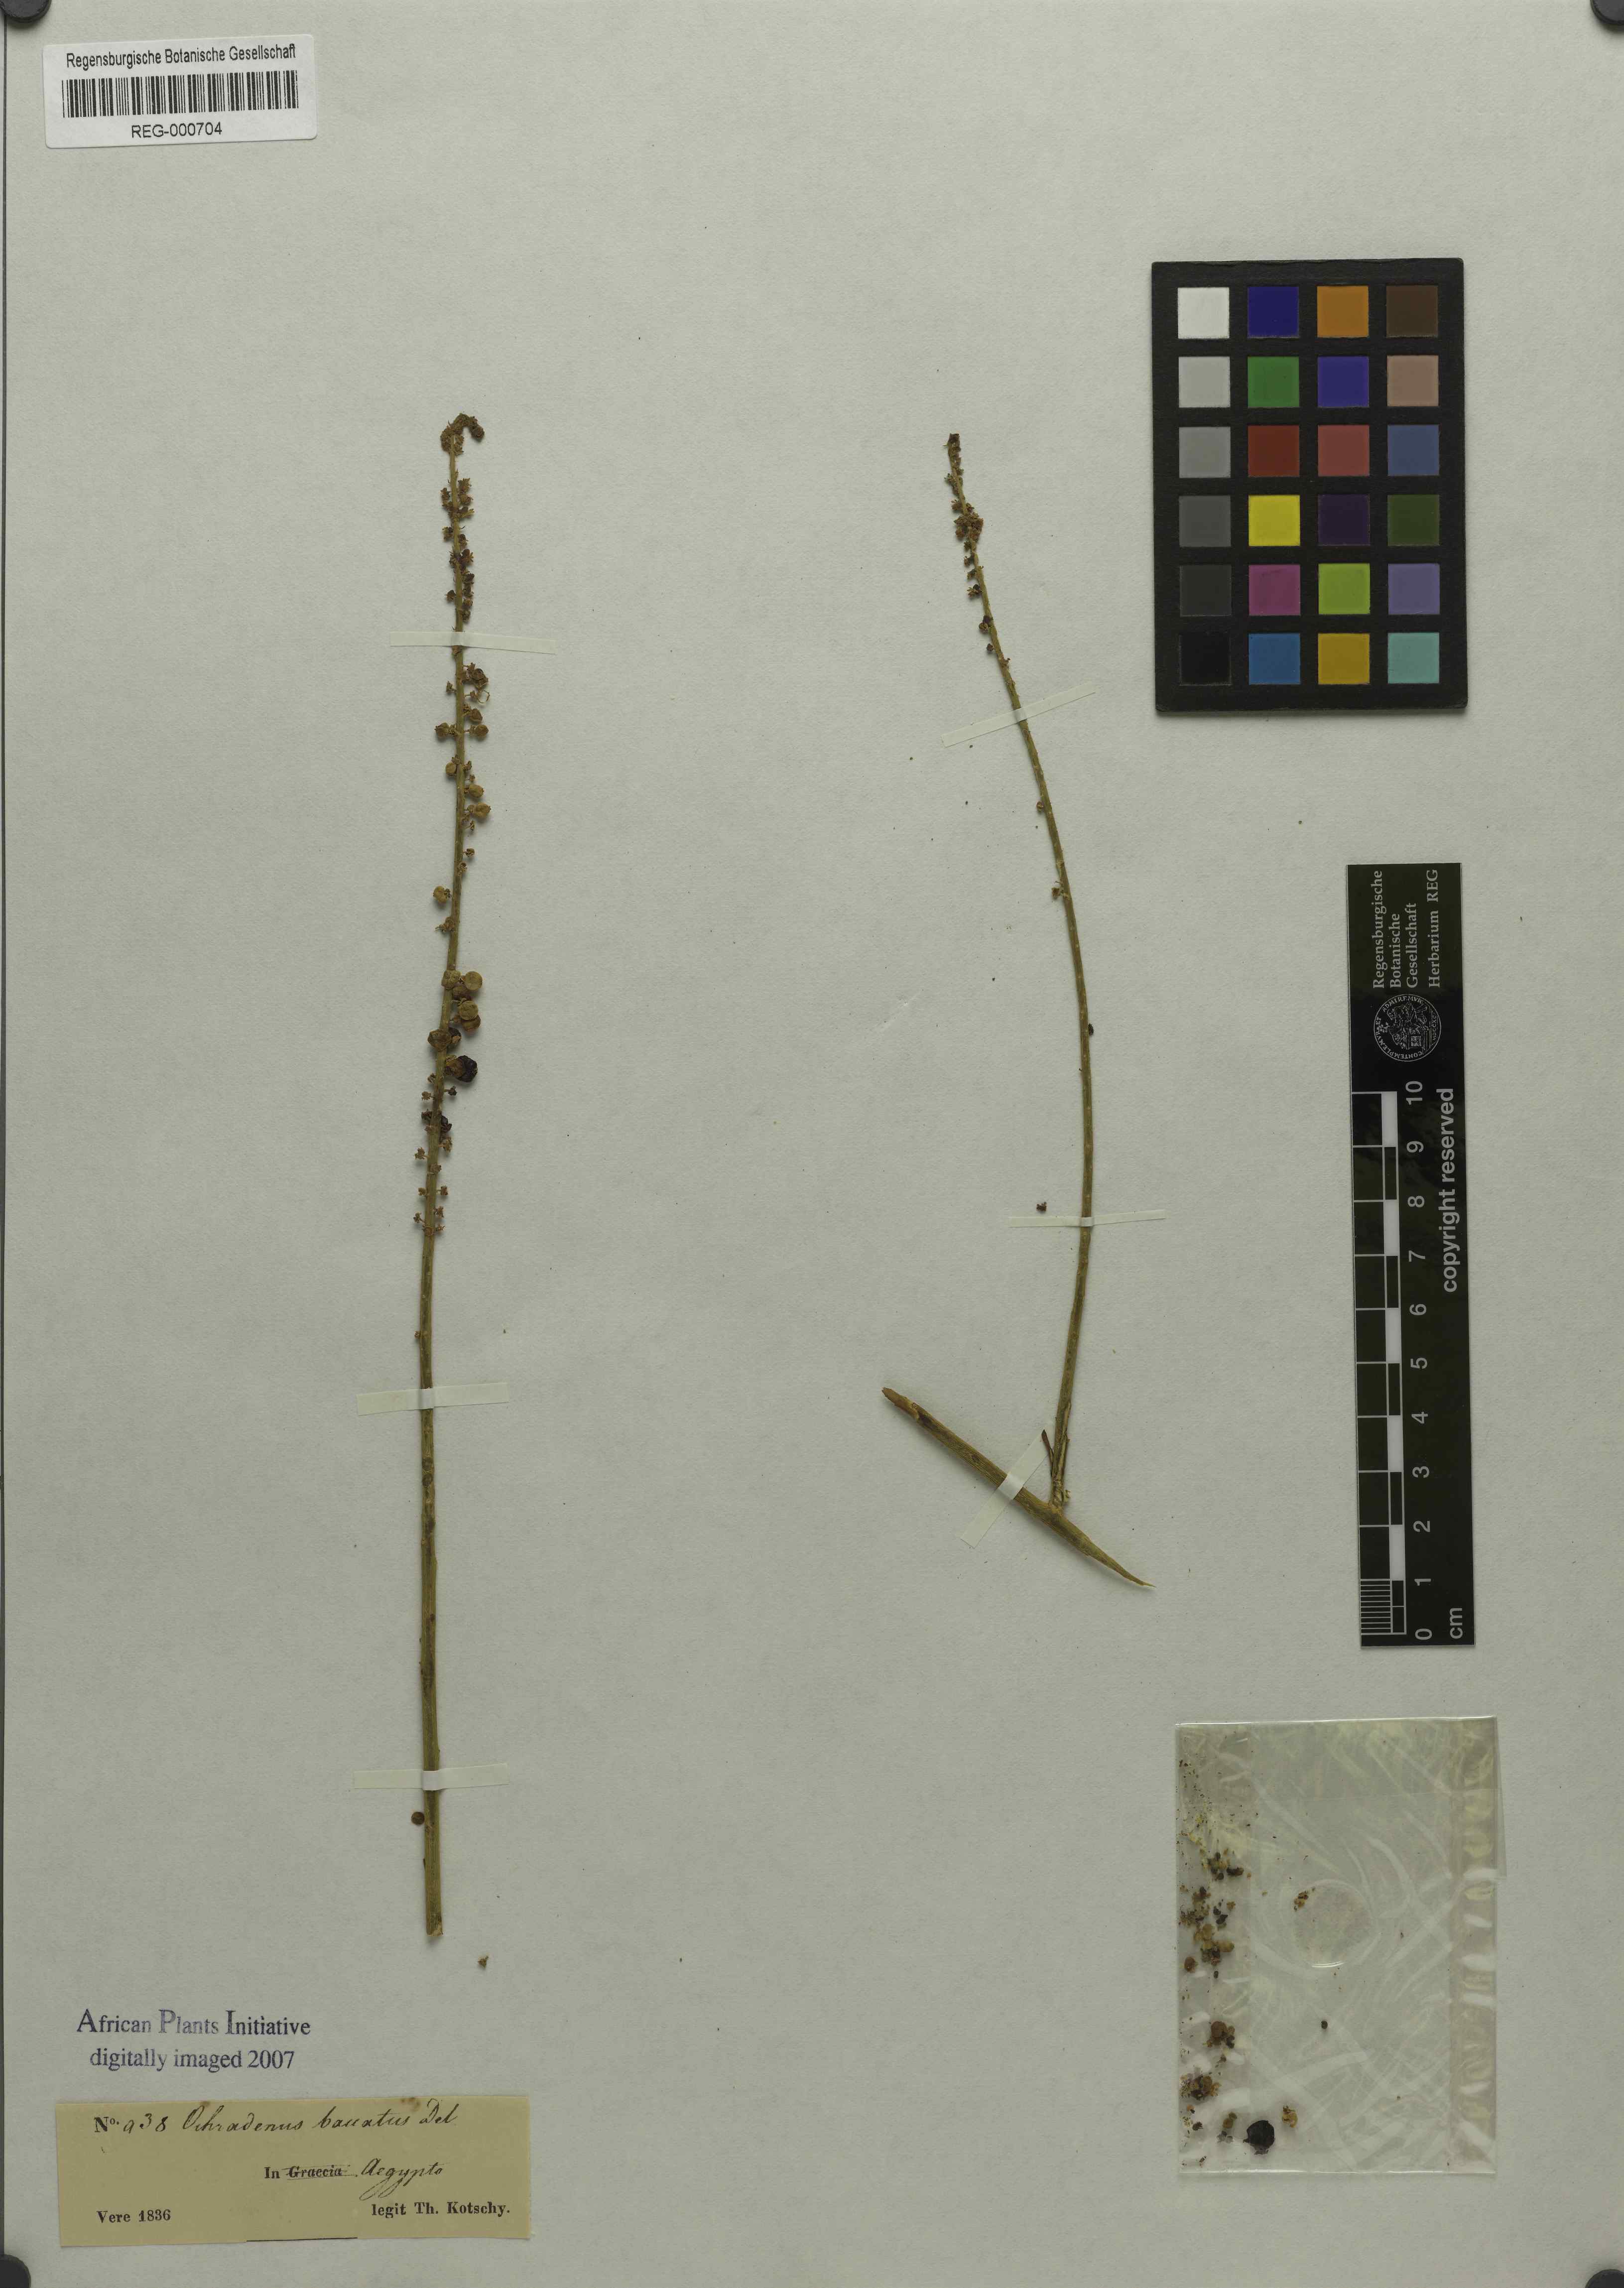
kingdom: Plantae
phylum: Tracheophyta
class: Magnoliopsida
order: Brassicales
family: Resedaceae
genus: Ochradenus
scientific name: Ochradenus baccatus
